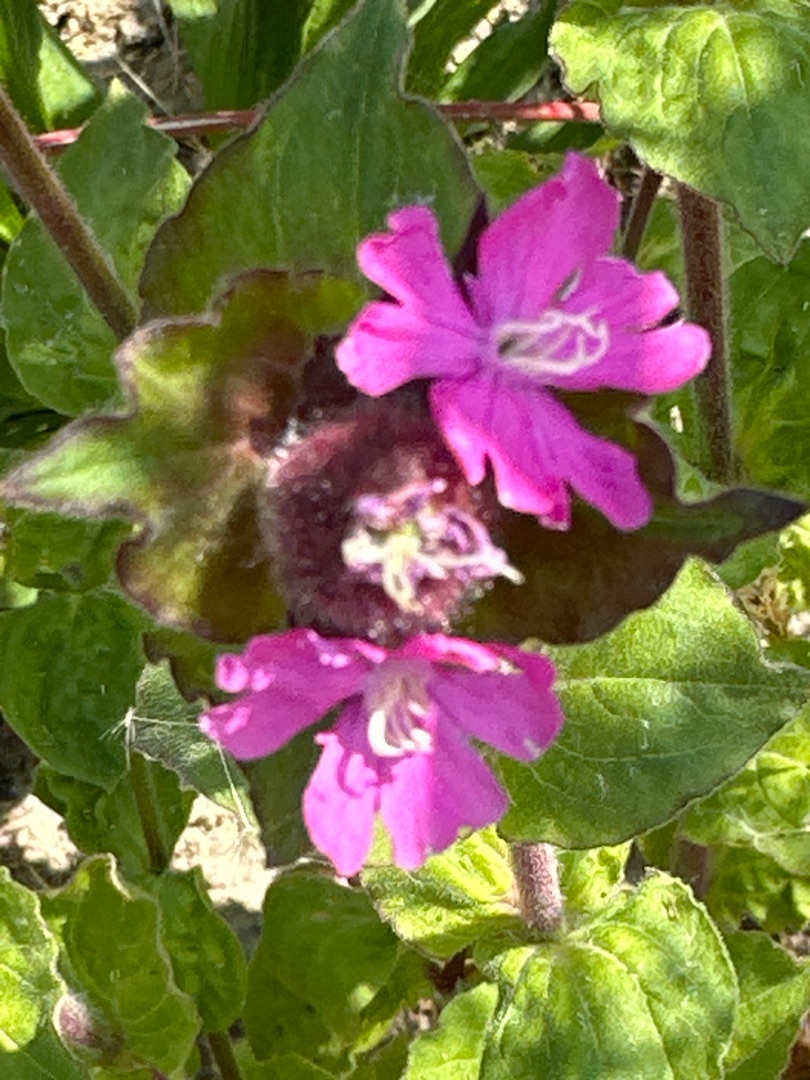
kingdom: Plantae
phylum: Tracheophyta
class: Magnoliopsida
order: Caryophyllales
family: Caryophyllaceae
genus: Silene
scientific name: Silene dioica
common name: Dagpragtstjerne
